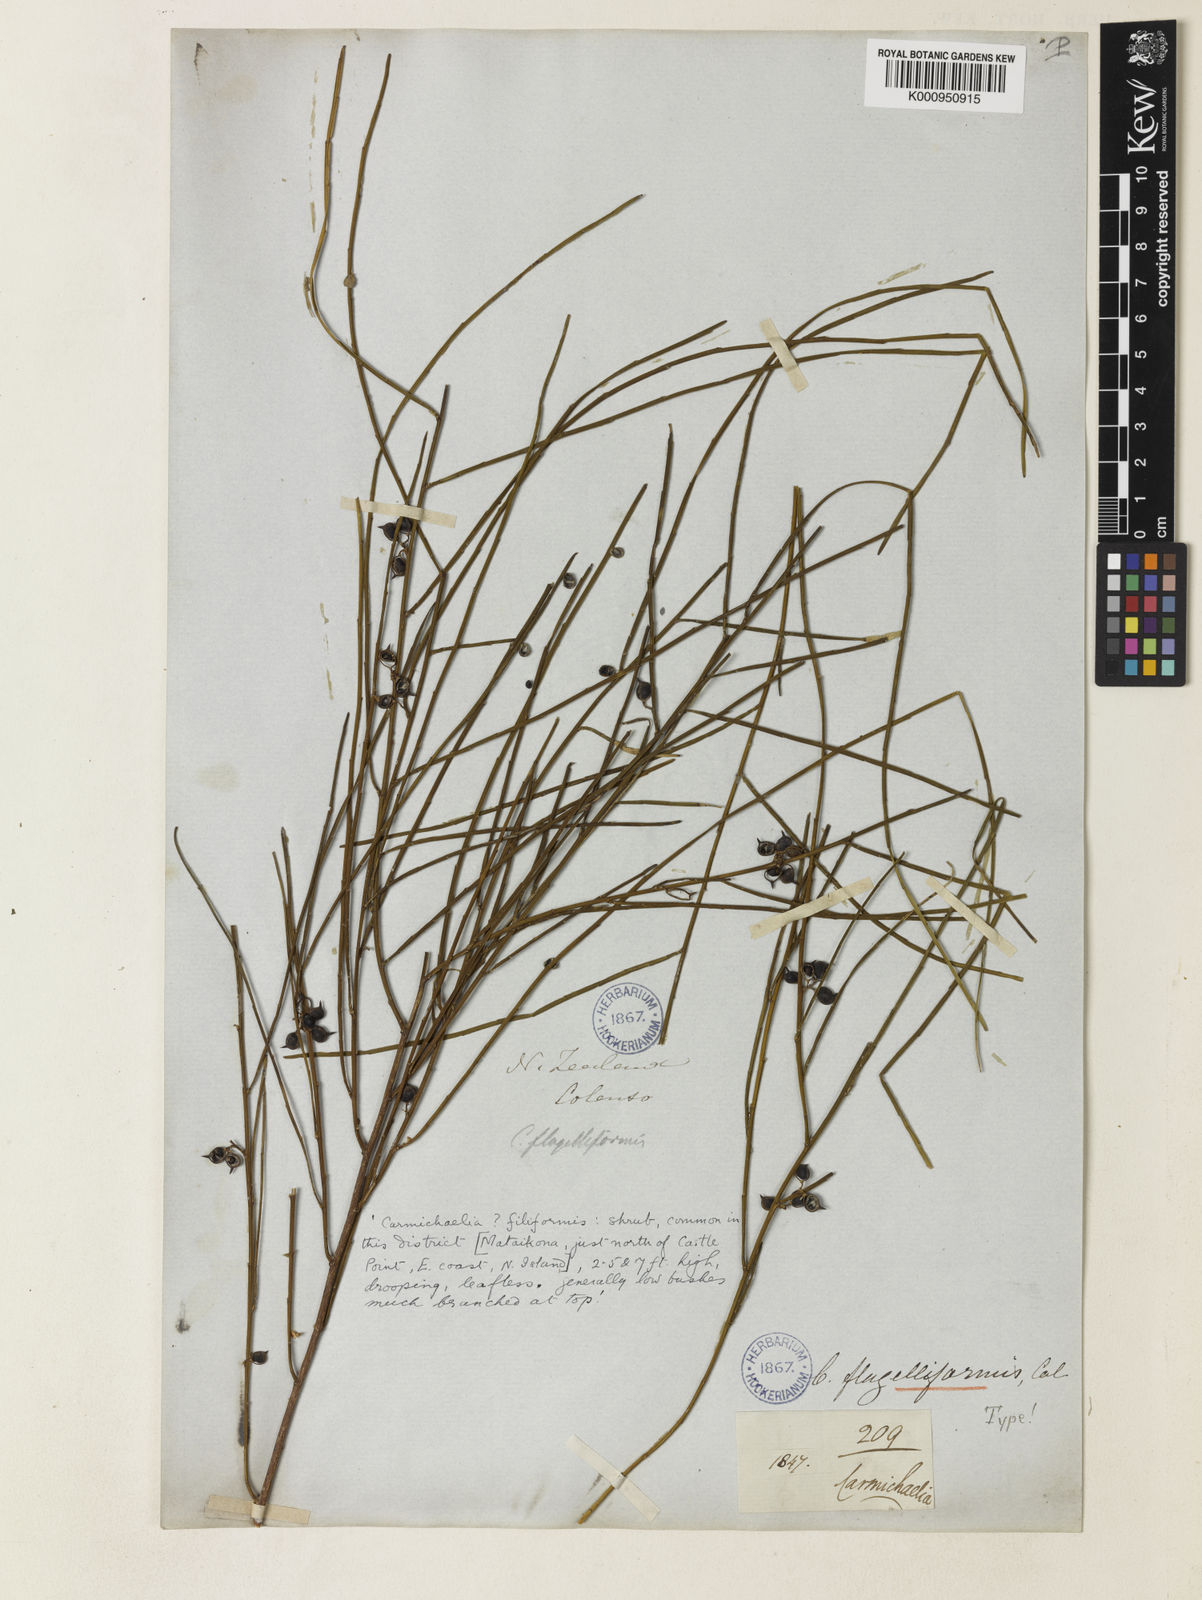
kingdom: Plantae
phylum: Tracheophyta
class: Magnoliopsida
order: Fabales
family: Fabaceae
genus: Carmichaelia
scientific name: Carmichaelia australis
